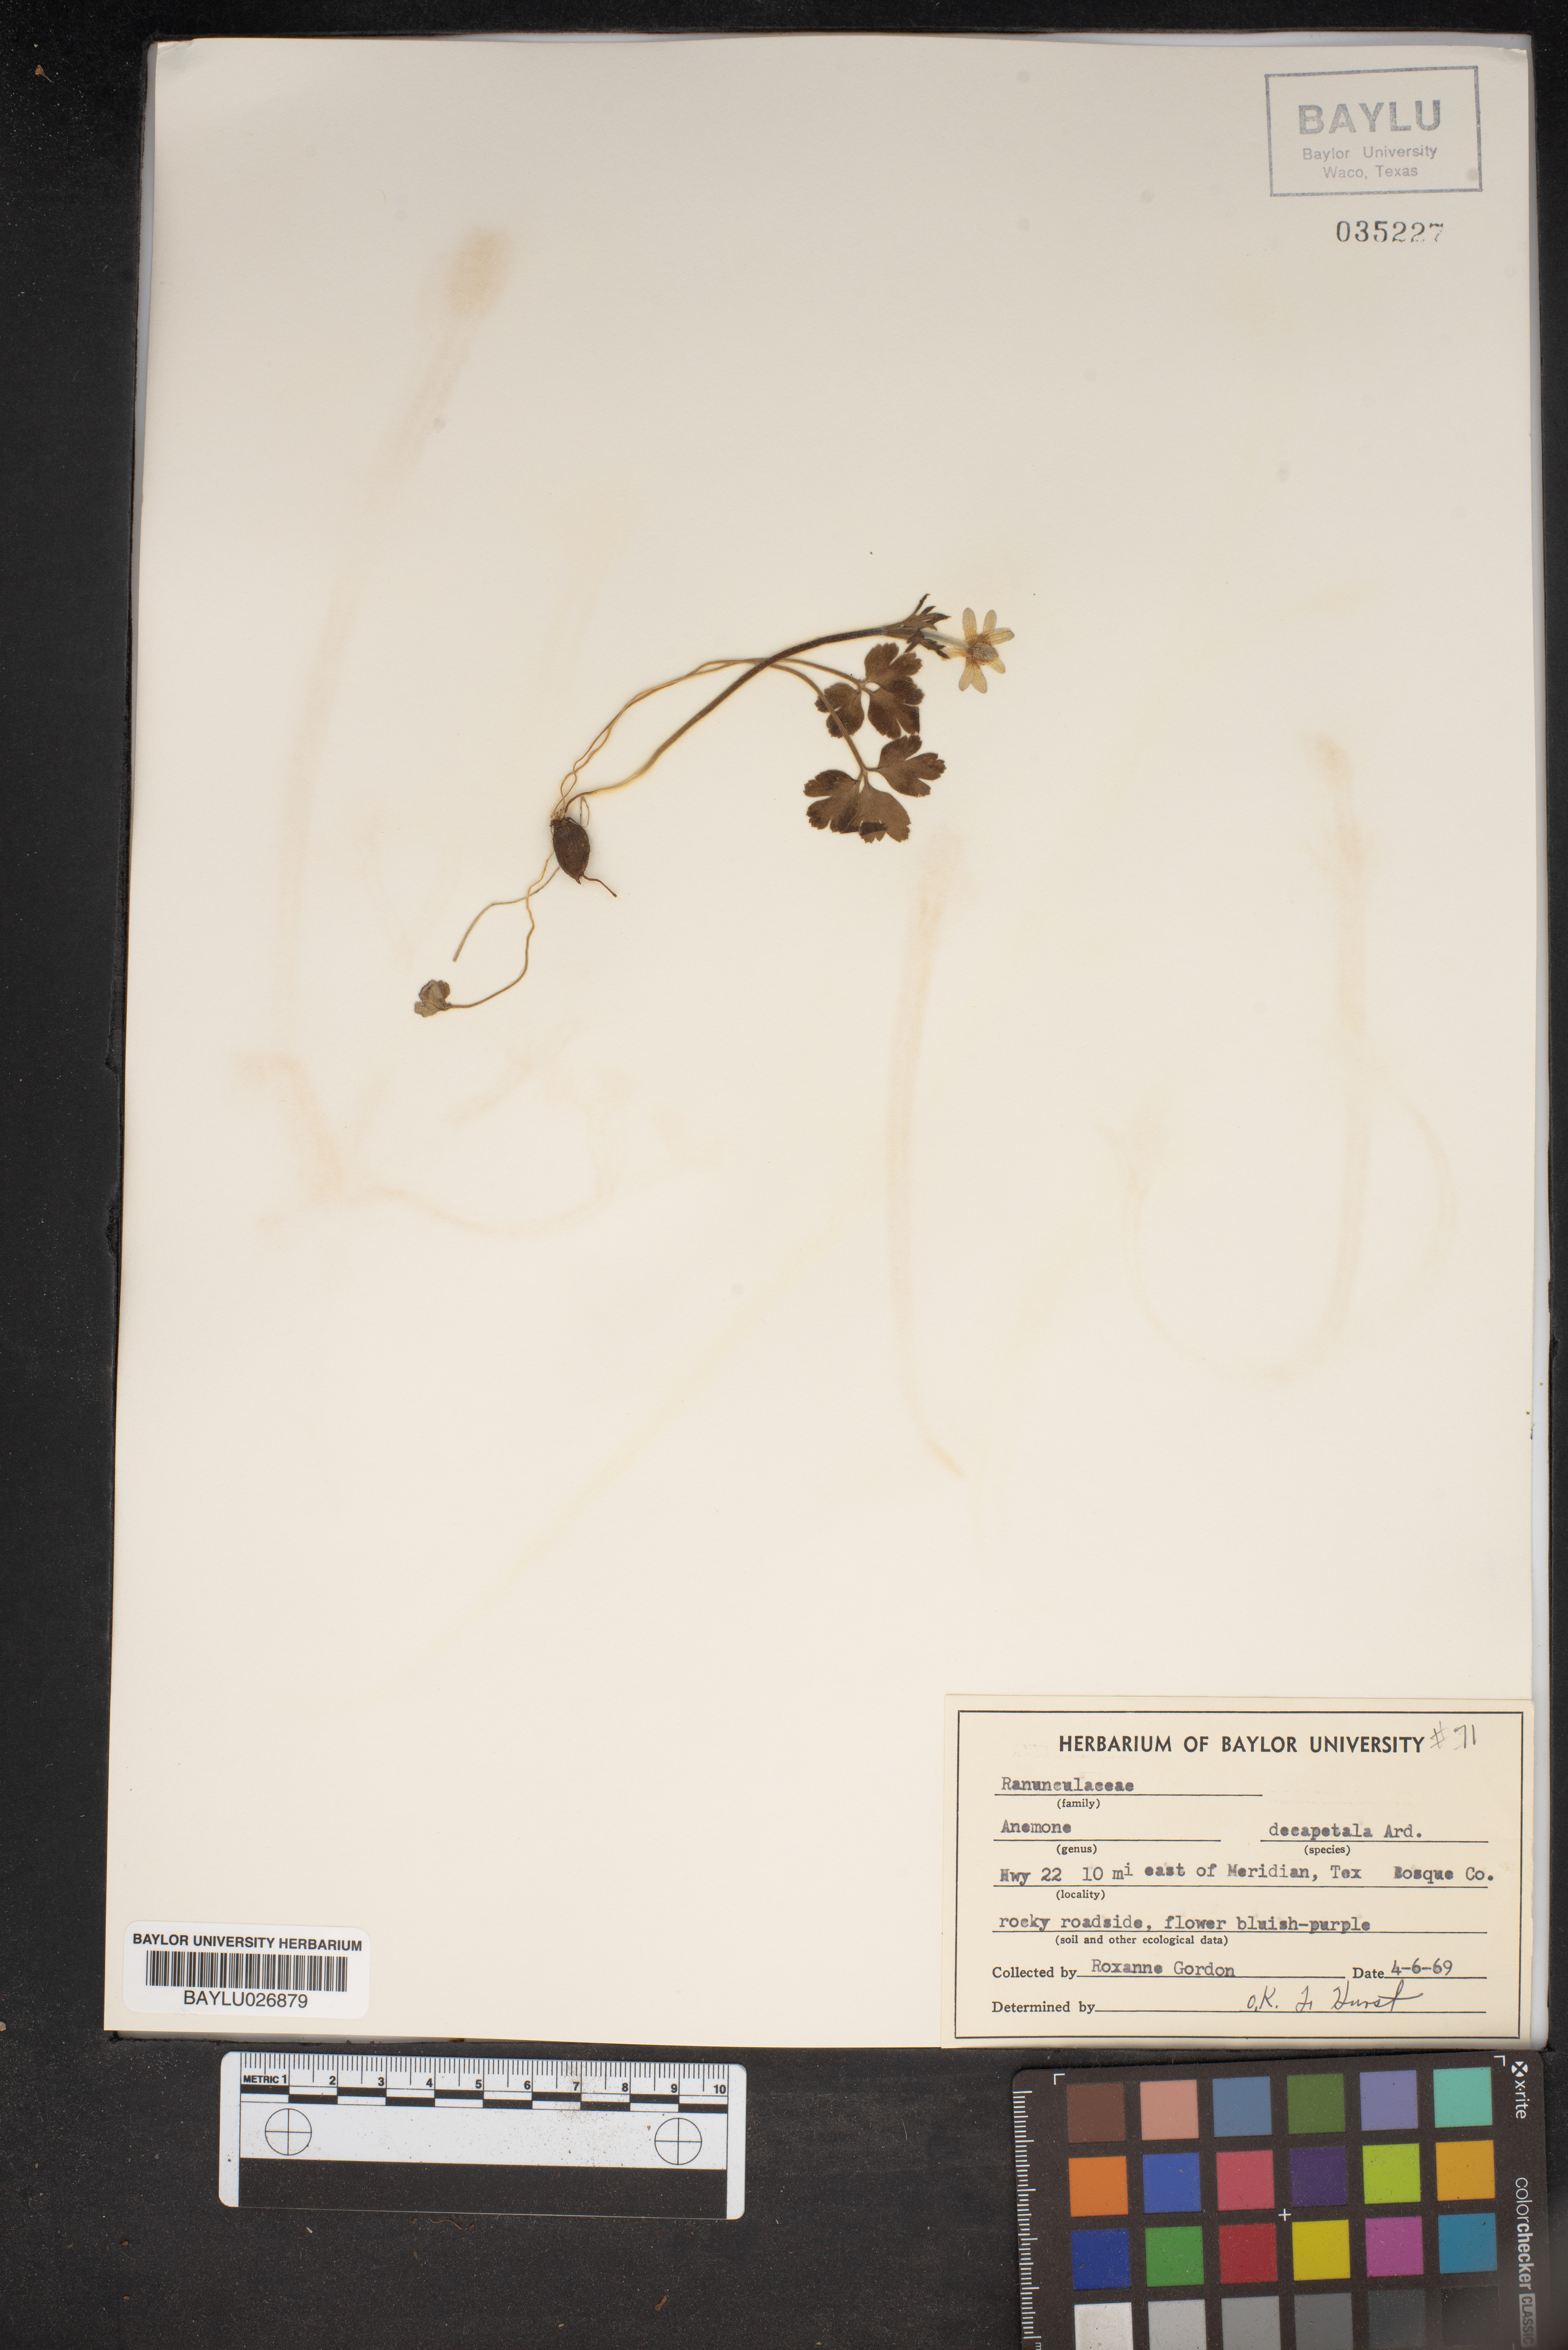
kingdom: Plantae
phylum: Tracheophyta
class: Magnoliopsida
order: Ranunculales
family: Ranunculaceae
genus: Anemone
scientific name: Anemone decapetala
